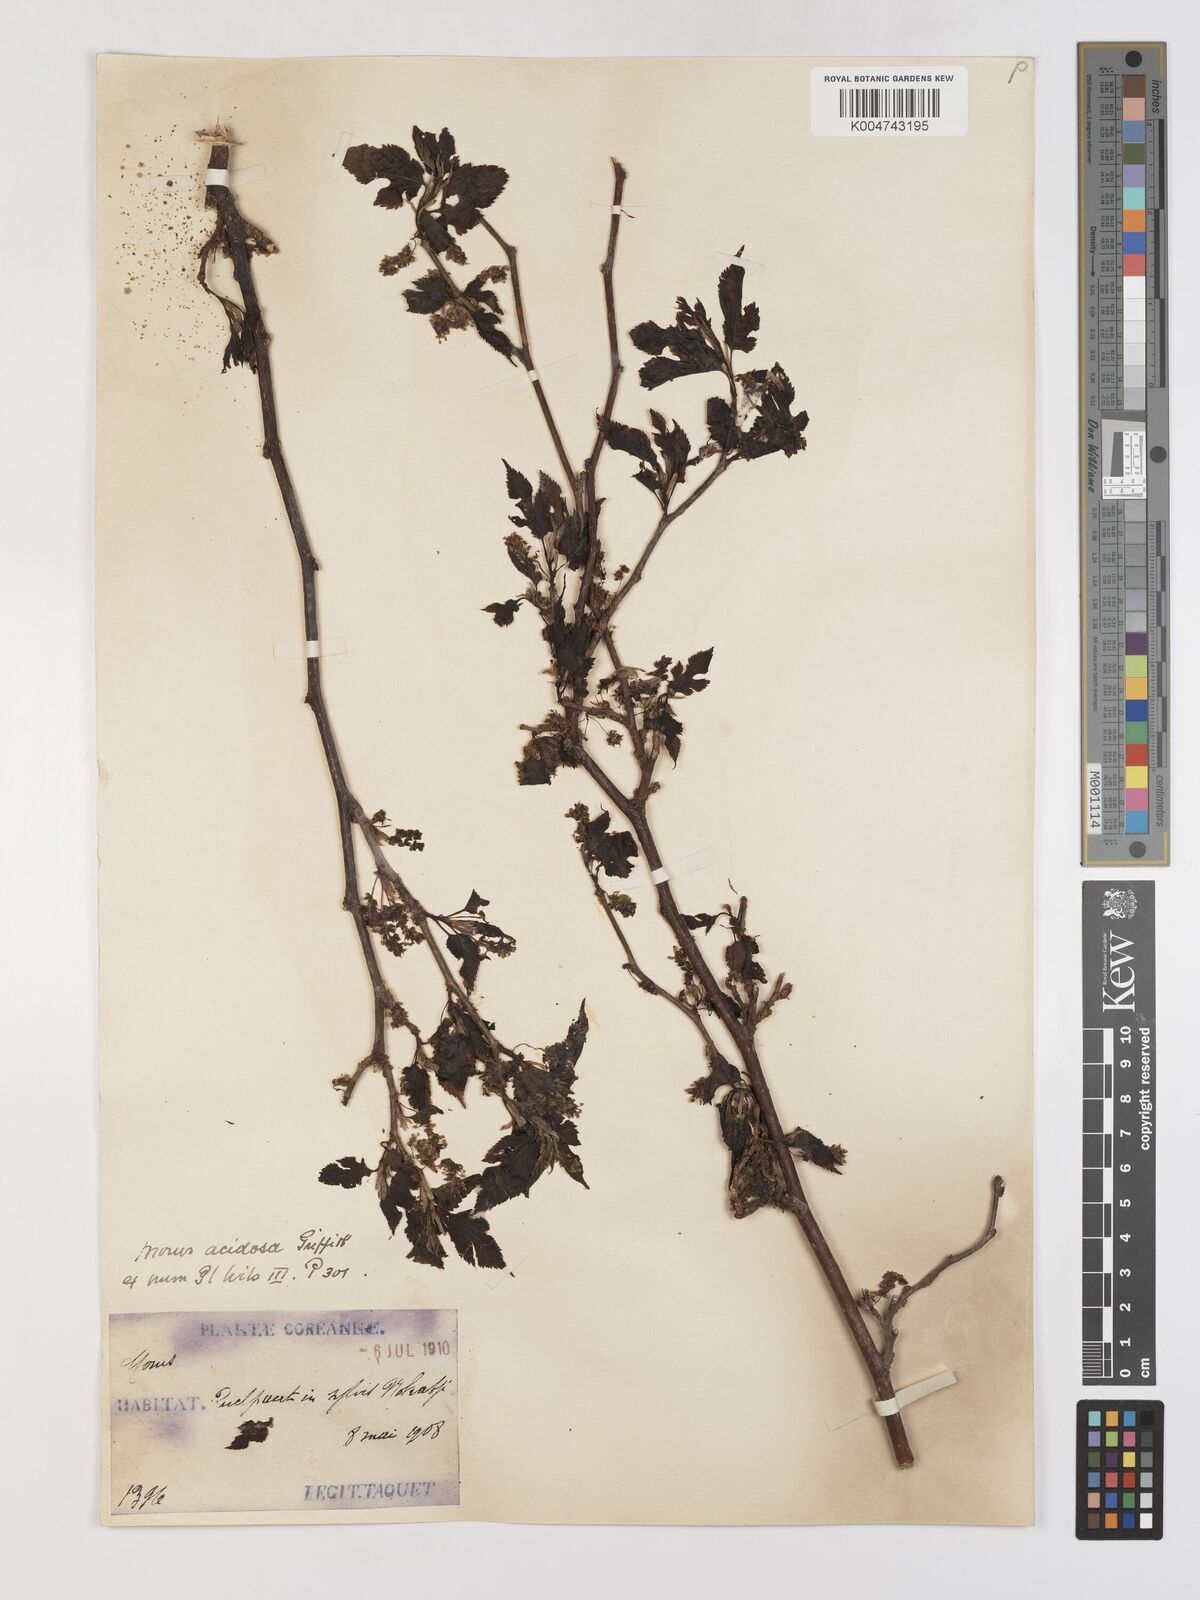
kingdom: Plantae
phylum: Tracheophyta
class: Magnoliopsida
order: Rosales
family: Moraceae
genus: Morus
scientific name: Morus indica
